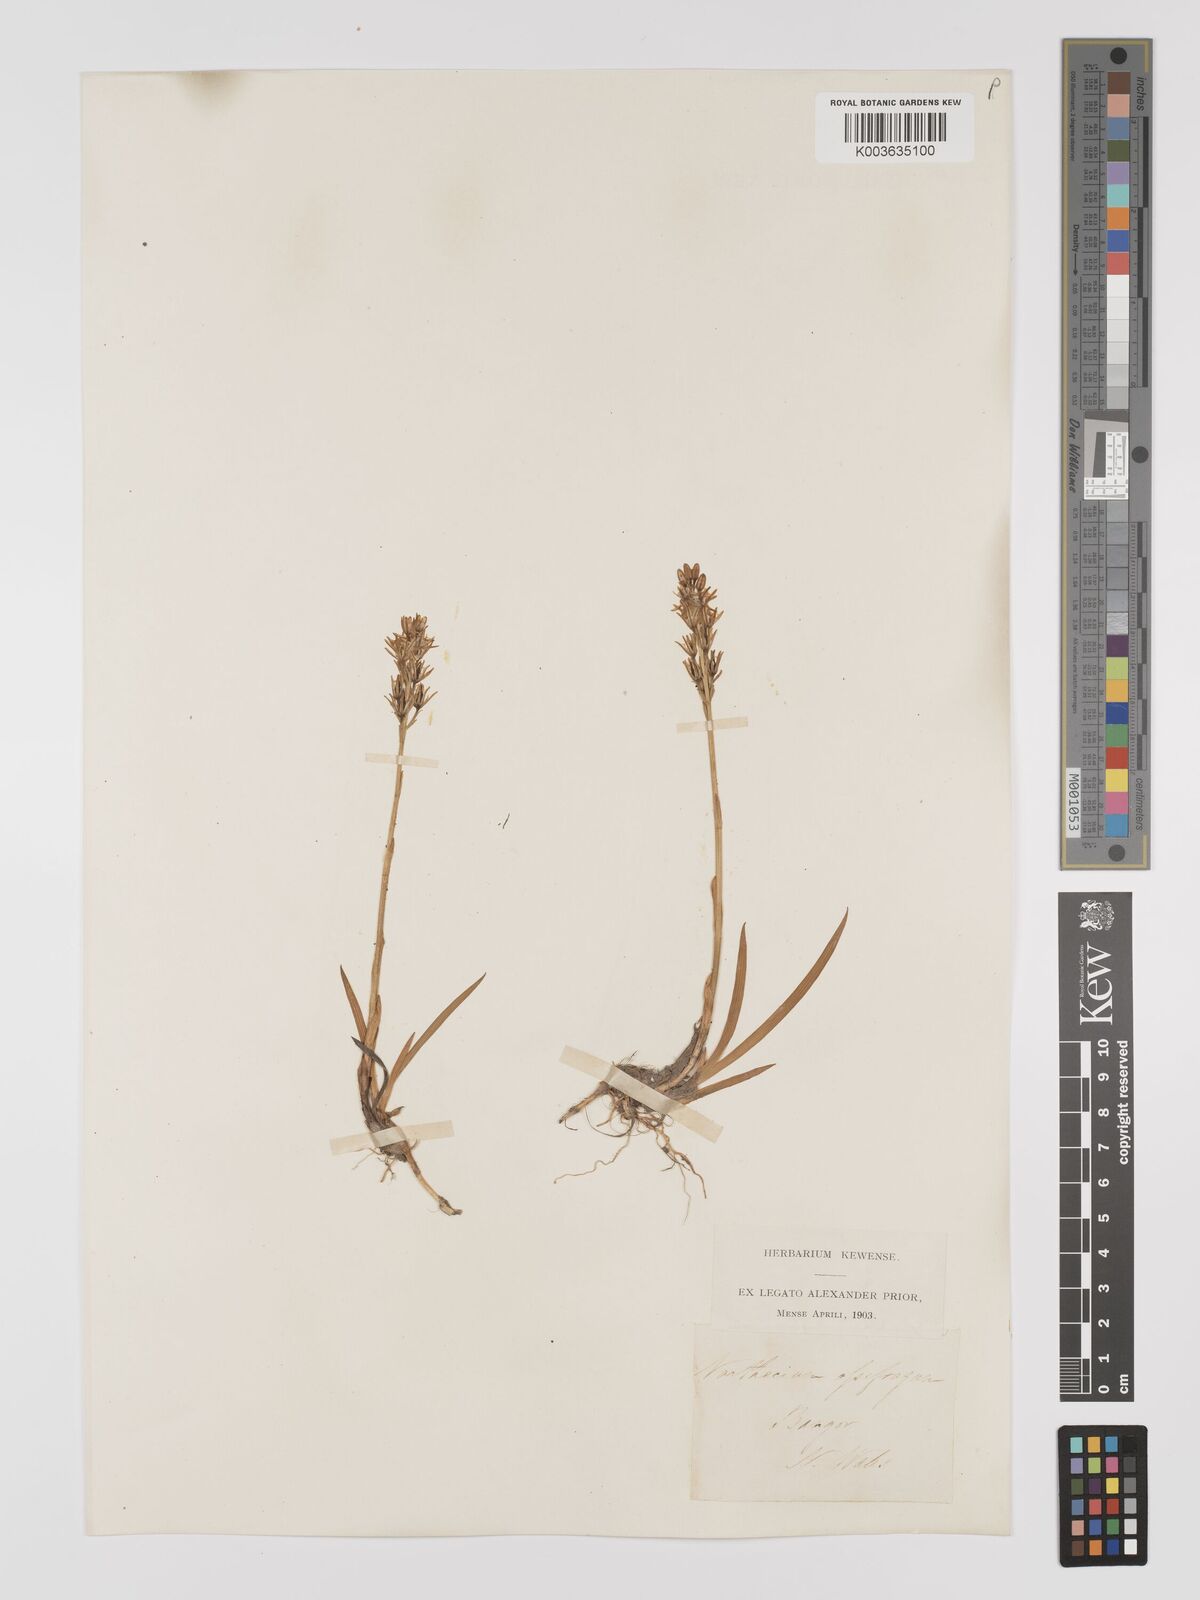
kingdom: Plantae
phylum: Tracheophyta
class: Liliopsida
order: Dioscoreales
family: Nartheciaceae
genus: Narthecium
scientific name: Narthecium
